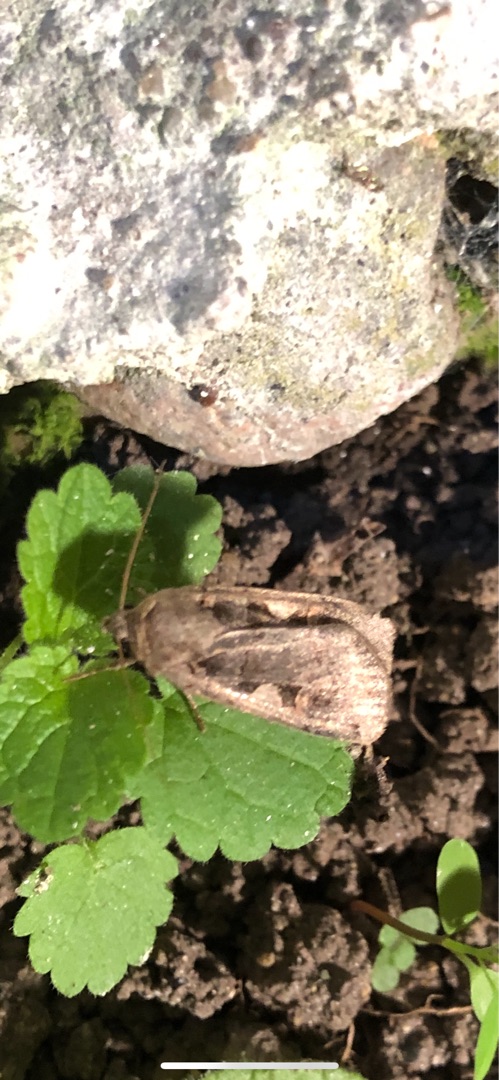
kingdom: Animalia
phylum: Arthropoda
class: Insecta
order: Lepidoptera
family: Noctuidae
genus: Xestia
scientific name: Xestia c-nigrum
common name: Det sorte c
